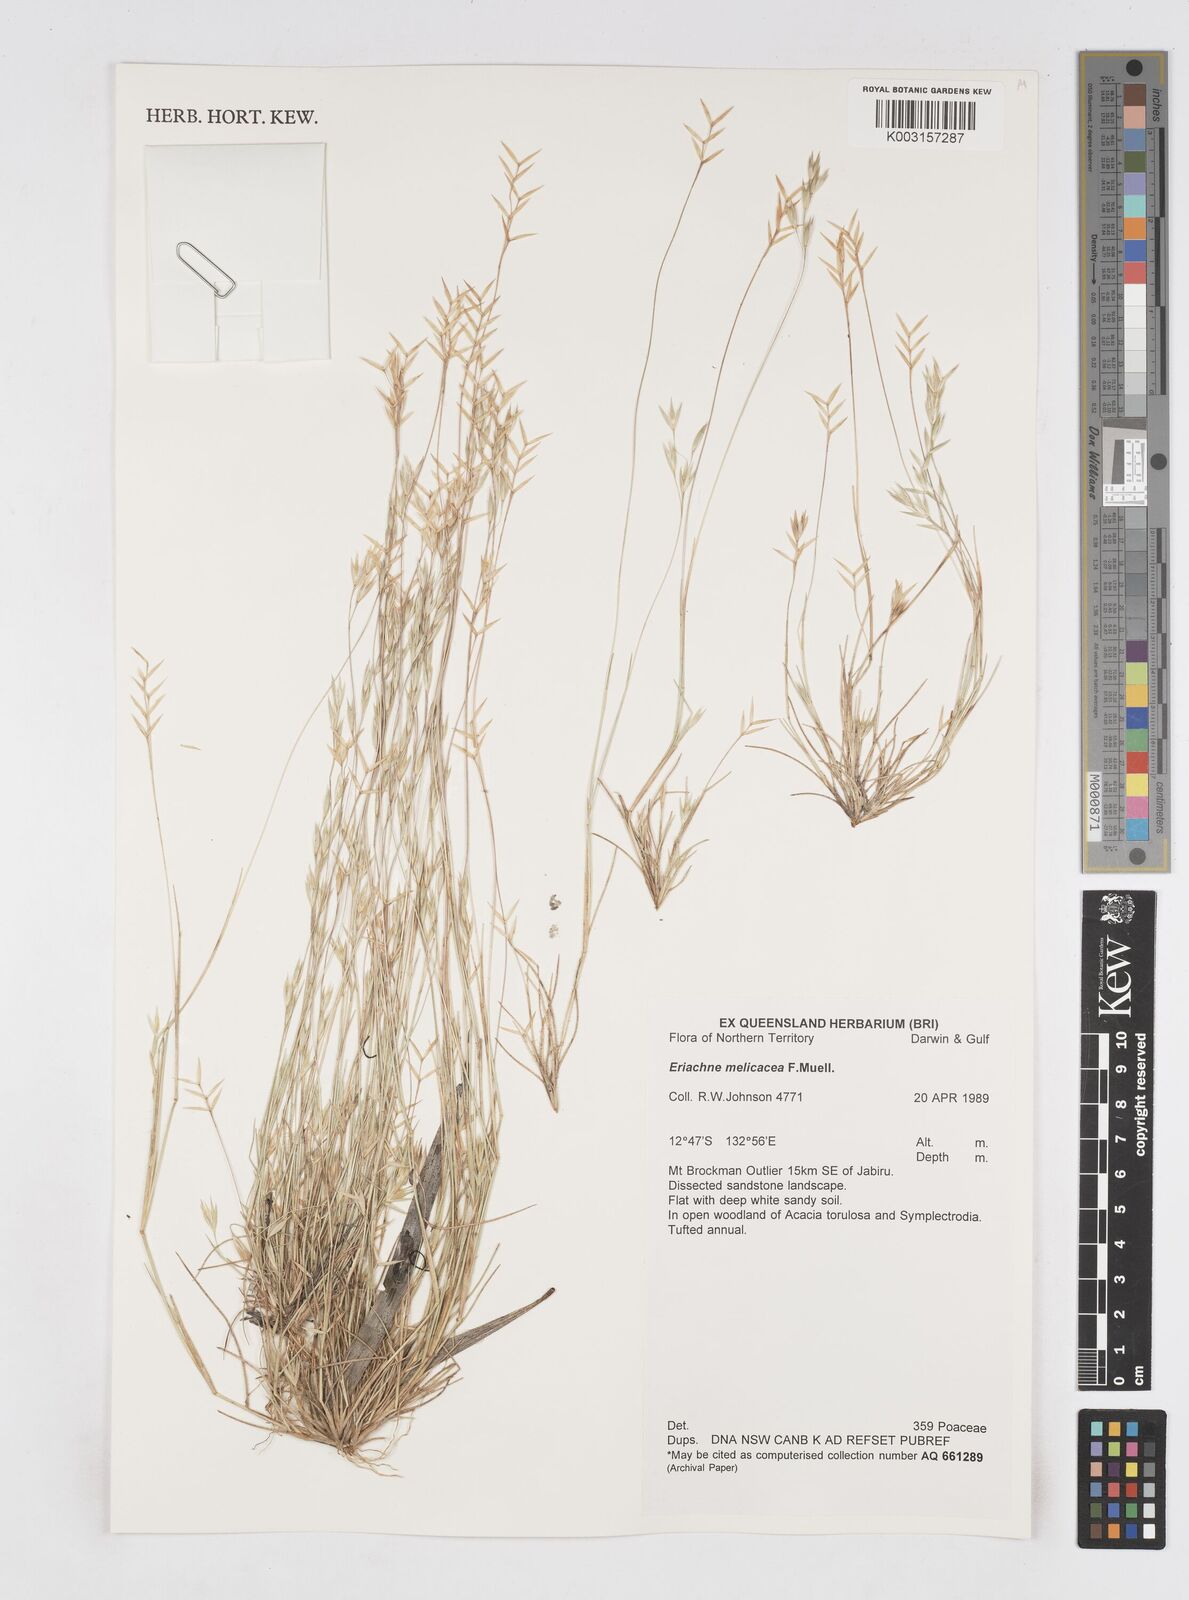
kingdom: Plantae
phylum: Tracheophyta
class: Liliopsida
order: Poales
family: Poaceae
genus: Eriachne
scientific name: Eriachne melicacea
